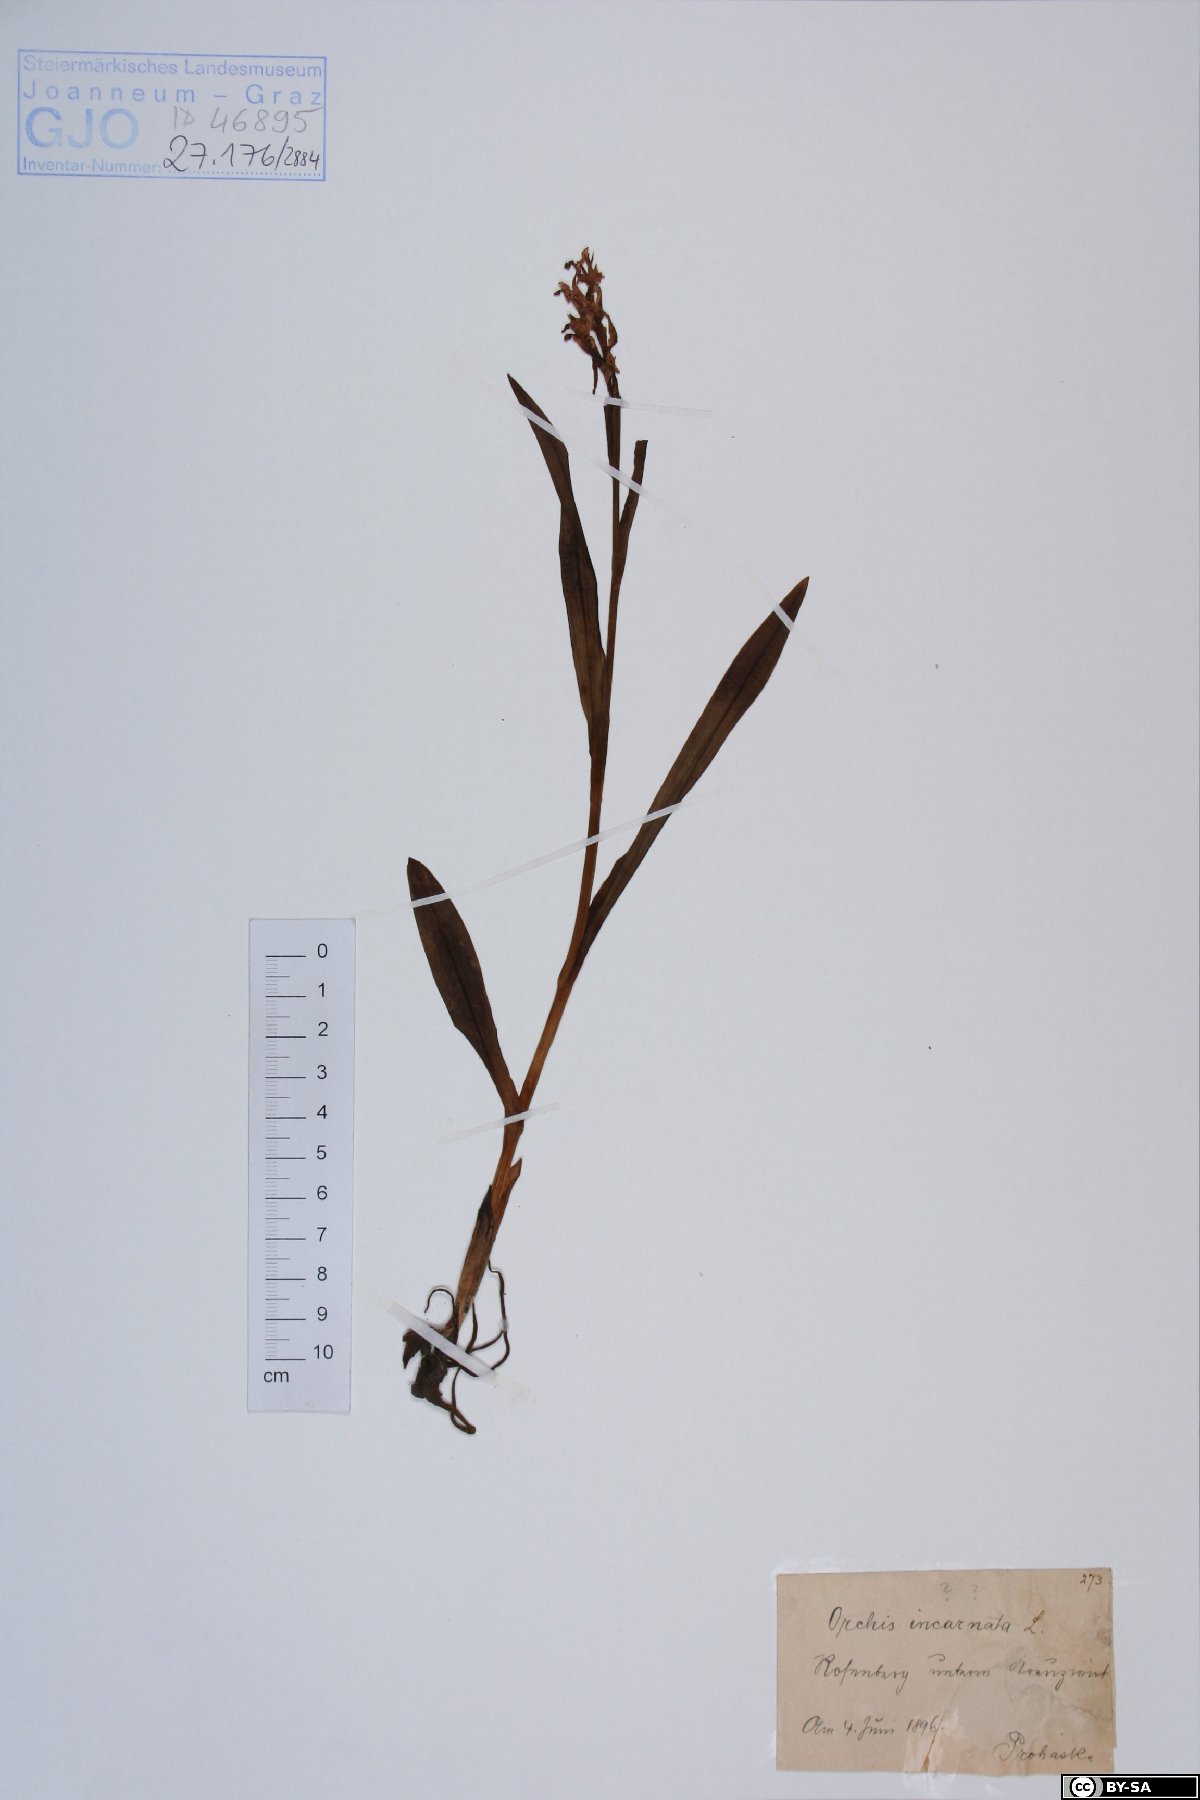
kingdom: Plantae
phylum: Tracheophyta
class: Liliopsida
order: Asparagales
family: Orchidaceae
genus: Dactylorhiza
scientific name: Dactylorhiza incarnata
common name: Early marsh-orchid
